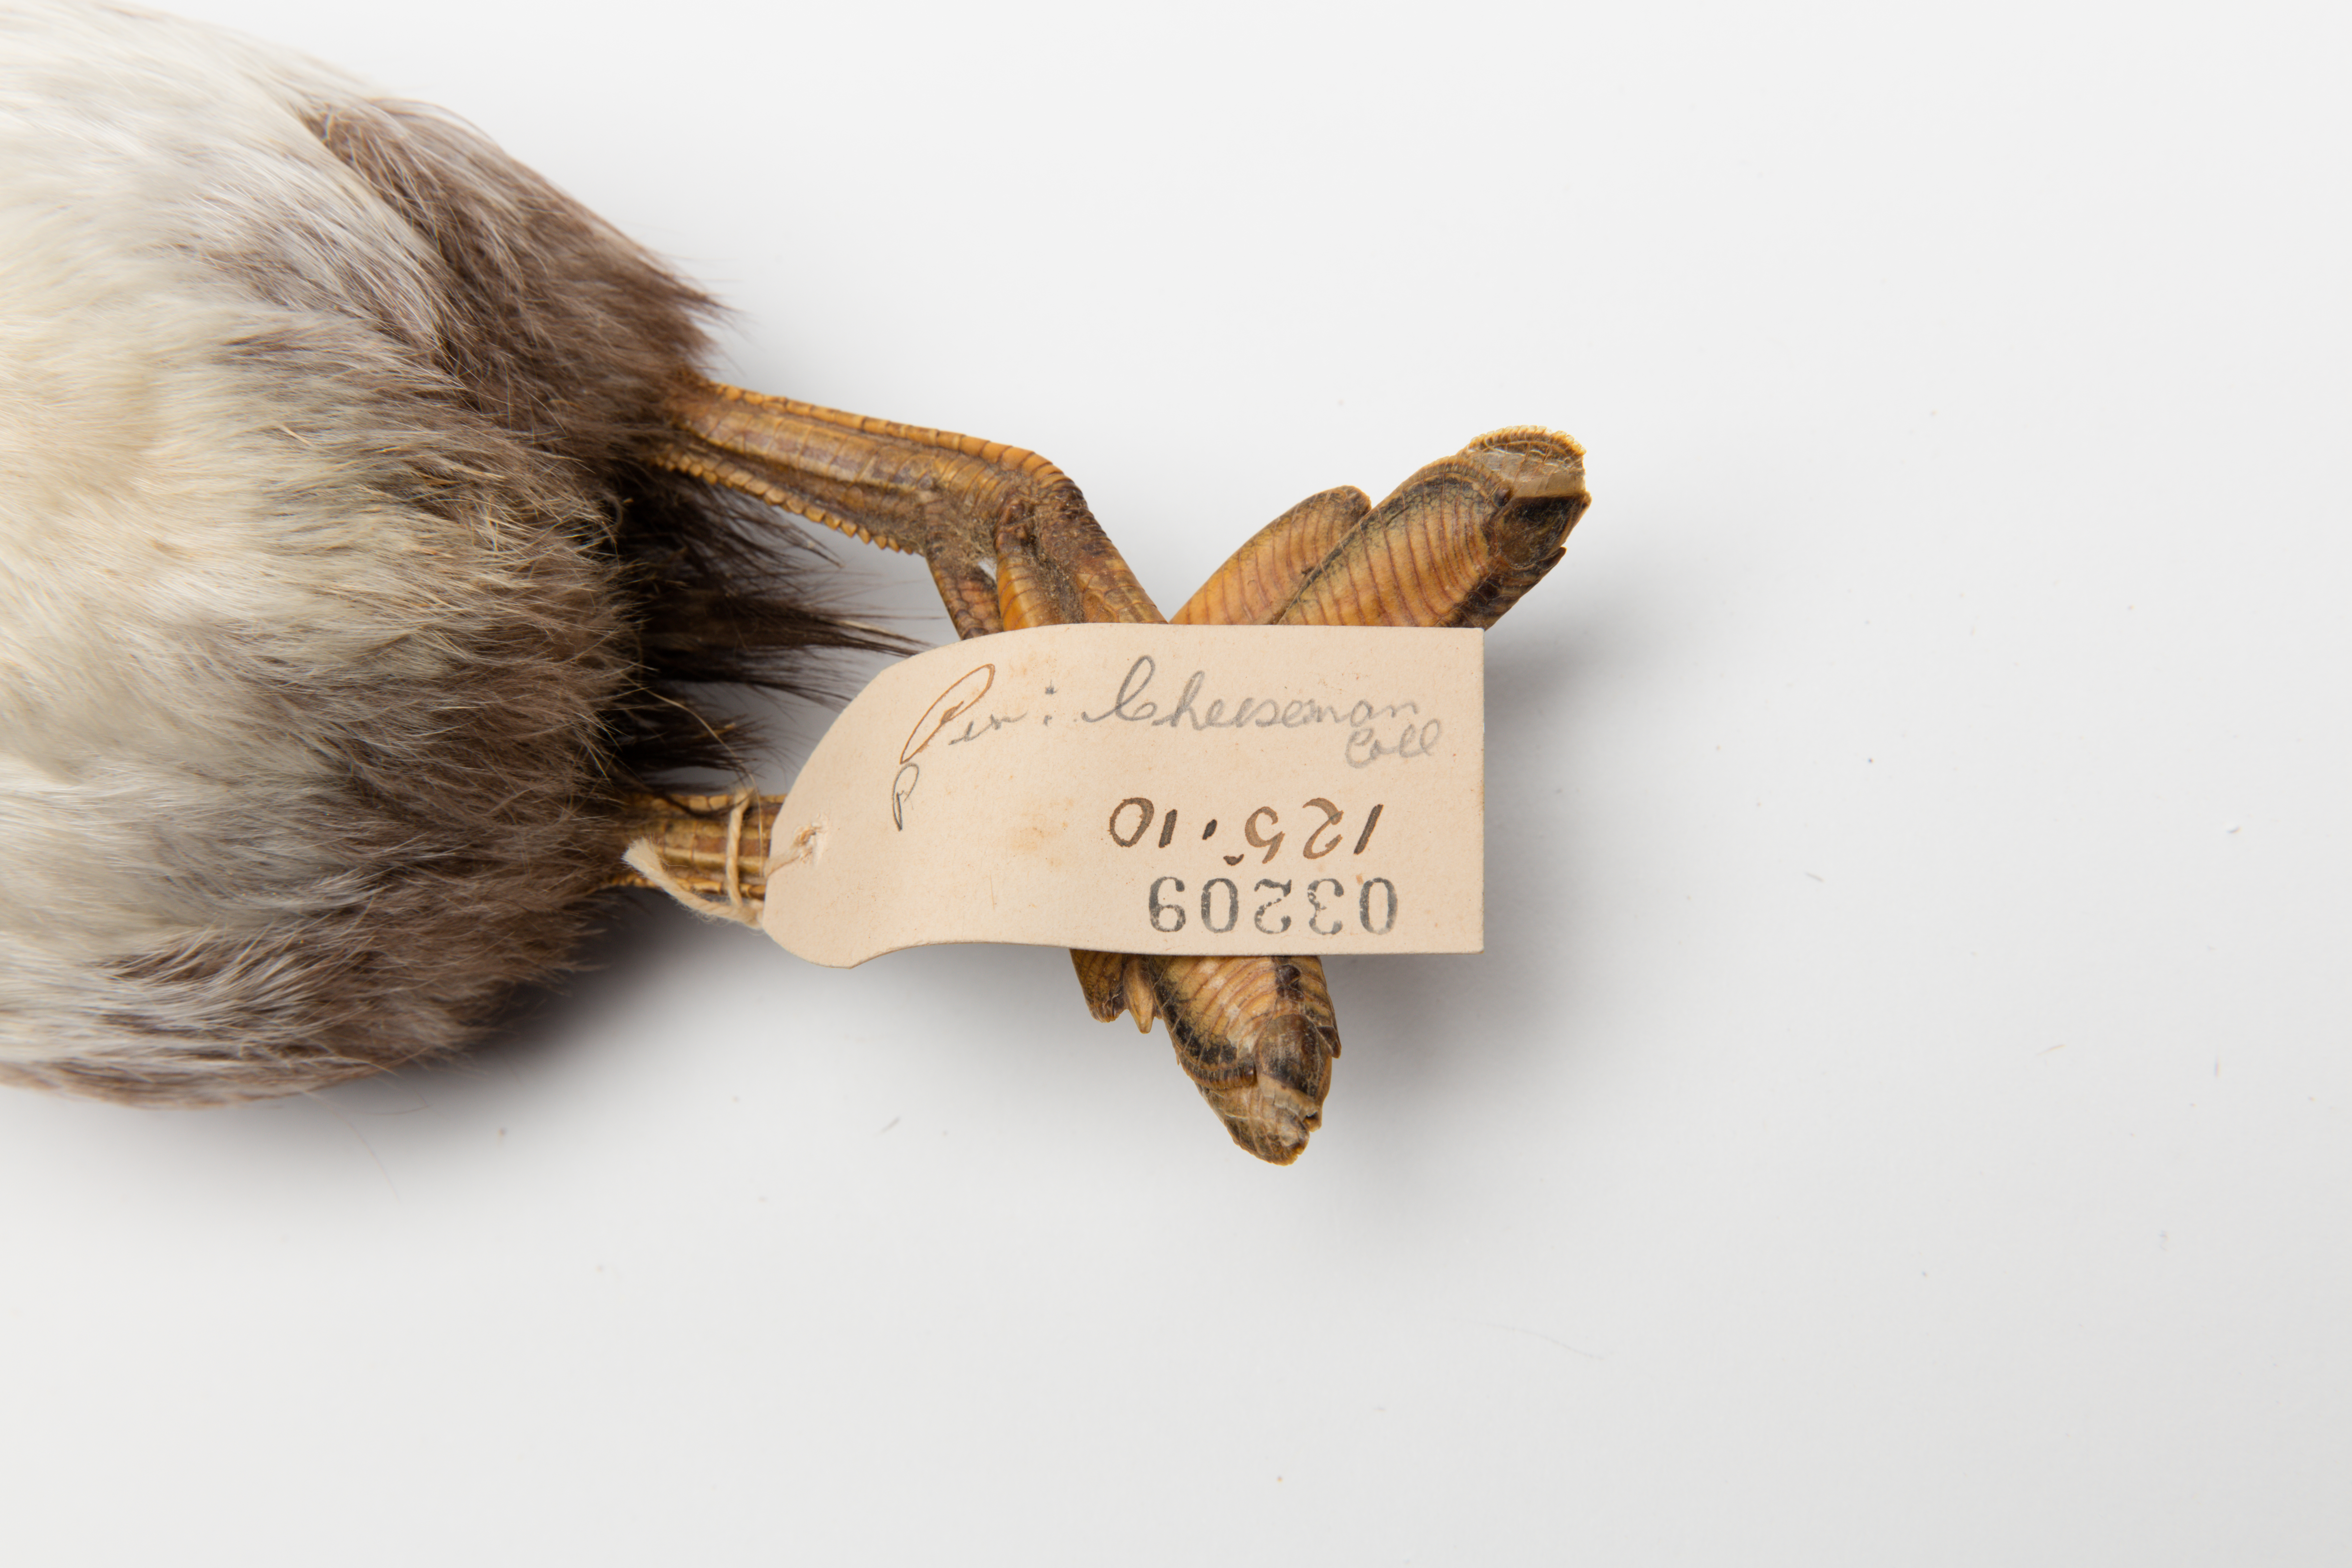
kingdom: Animalia
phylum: Chordata
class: Aves
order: Podicipediformes
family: Podicipedidae
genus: Poliocephalus
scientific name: Poliocephalus rufopectus
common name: New zealand grebe
